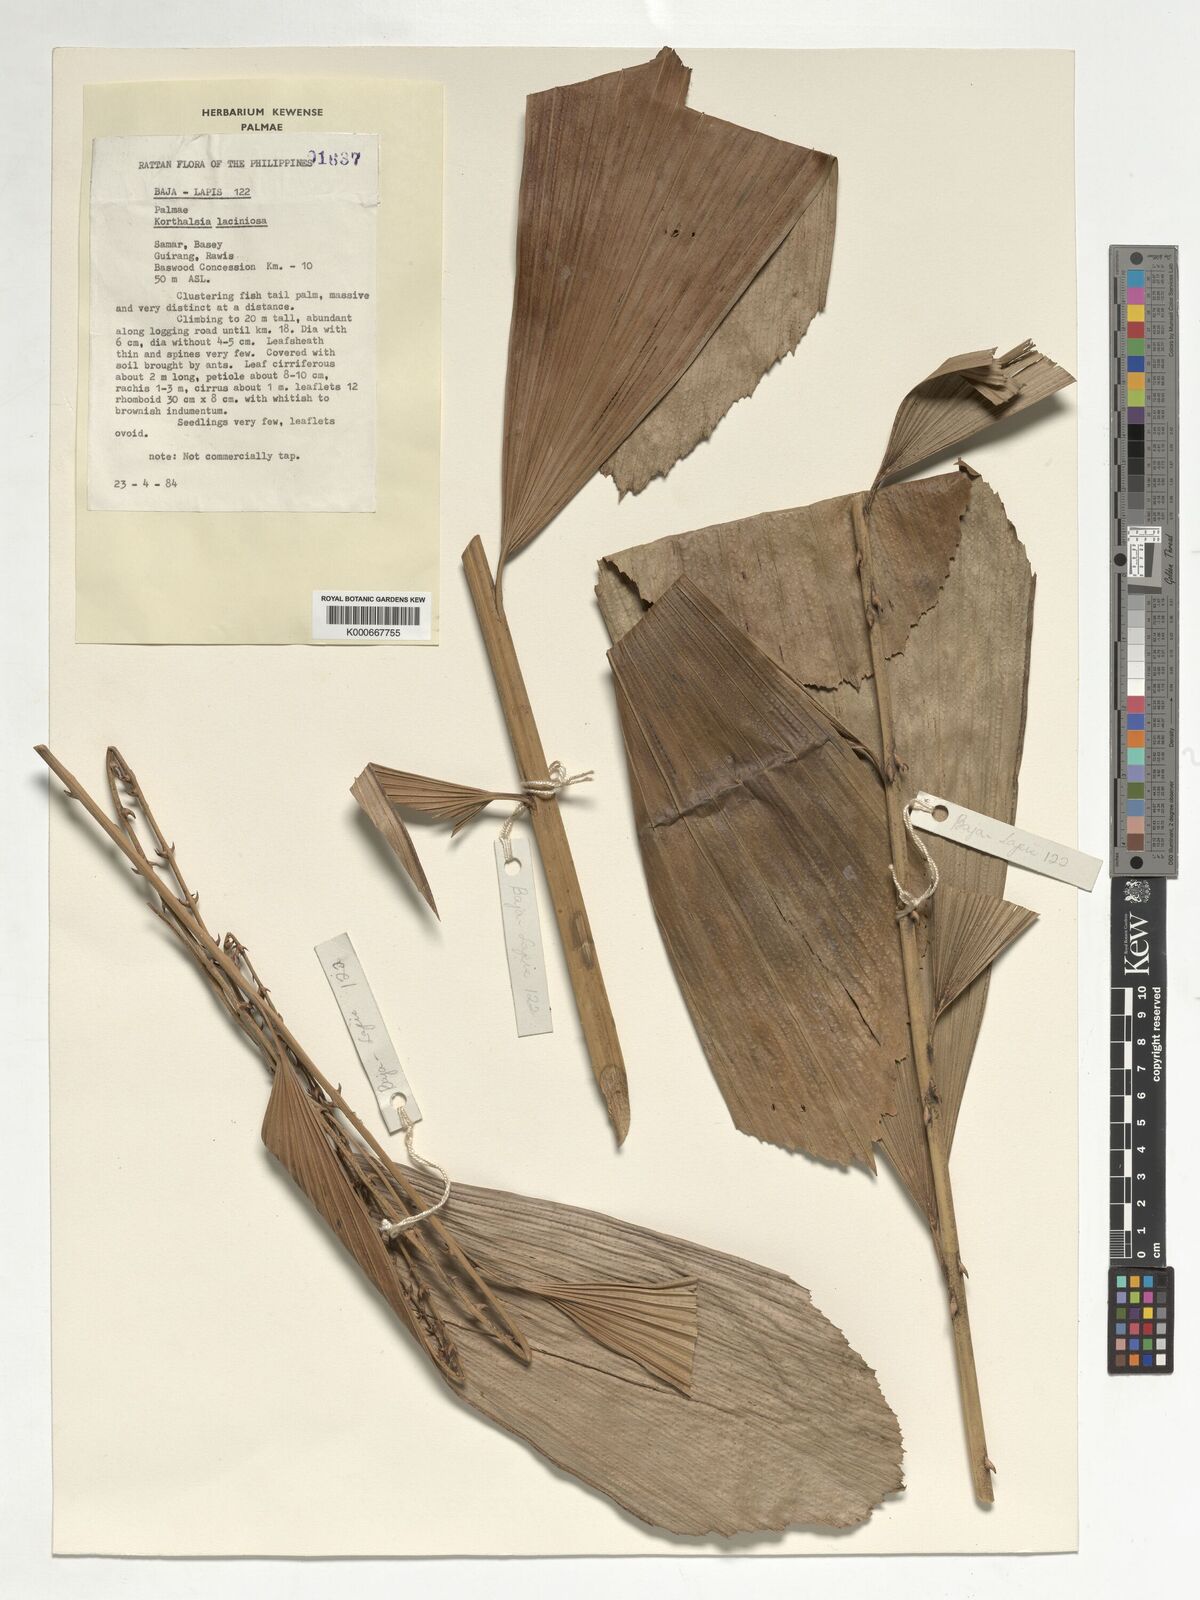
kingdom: Plantae
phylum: Tracheophyta
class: Liliopsida
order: Arecales
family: Arecaceae
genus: Korthalsia
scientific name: Korthalsia laciniosa
